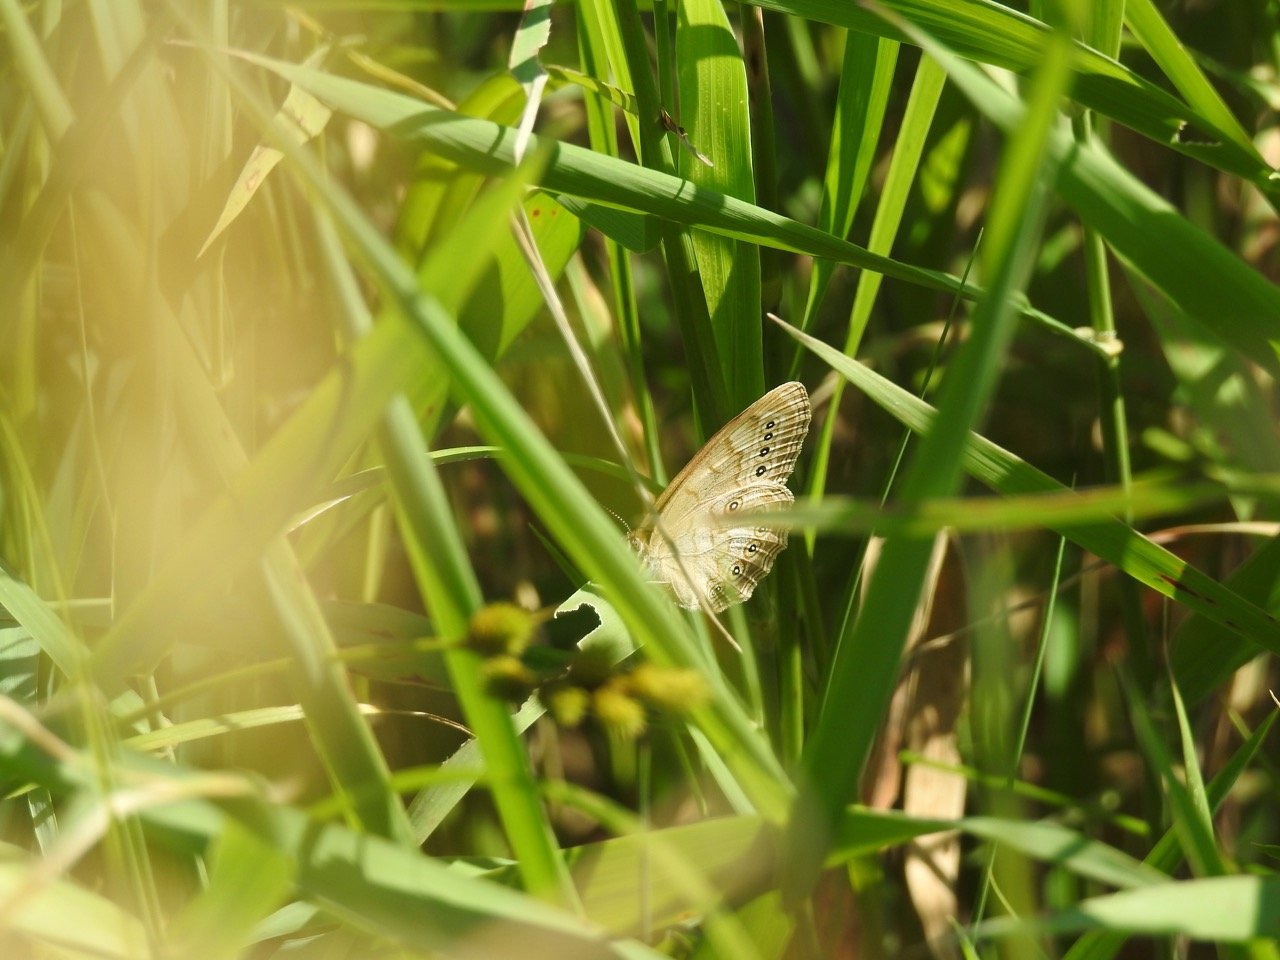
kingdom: Animalia
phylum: Arthropoda
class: Insecta
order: Lepidoptera
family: Nymphalidae
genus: Lethe
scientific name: Lethe eurydice
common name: Eyed Brown
